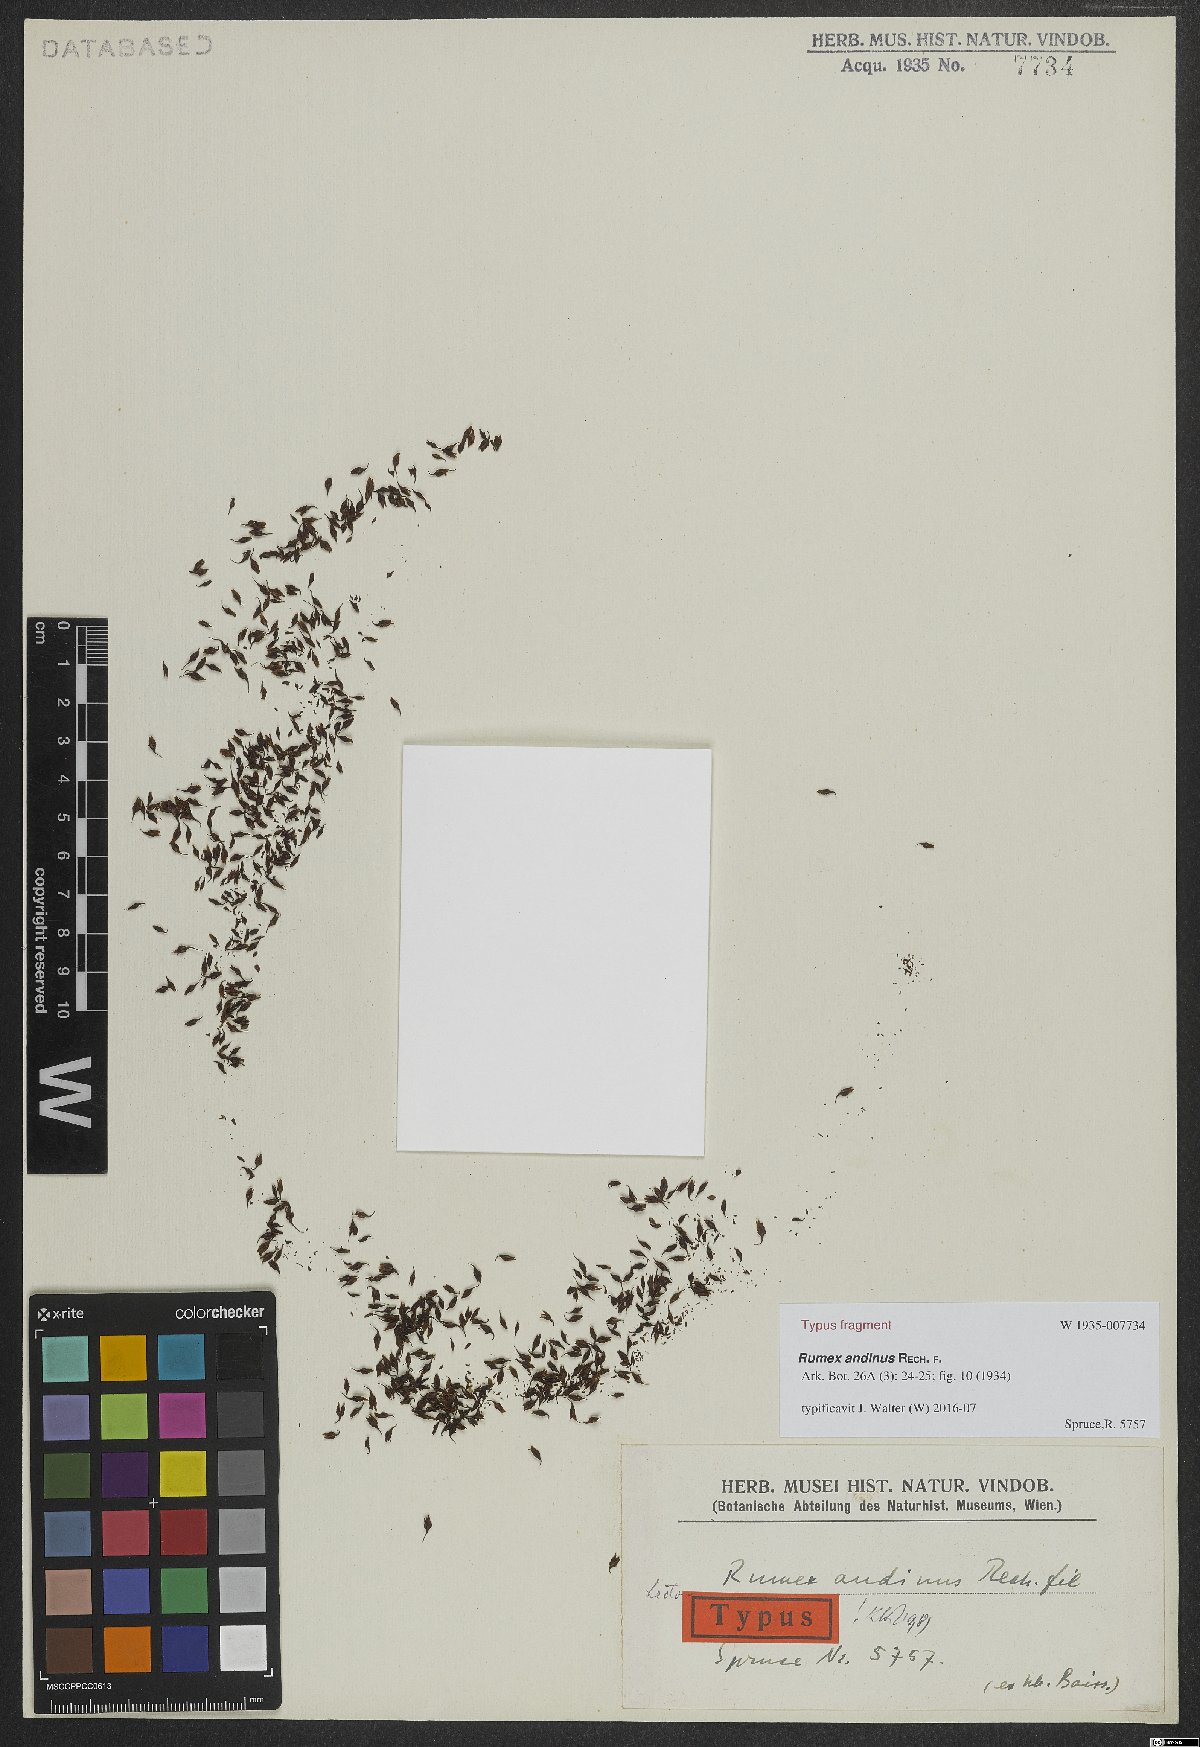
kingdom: Plantae
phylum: Tracheophyta
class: Magnoliopsida
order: Caryophyllales
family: Polygonaceae
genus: Rumex
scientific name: Rumex andinus
